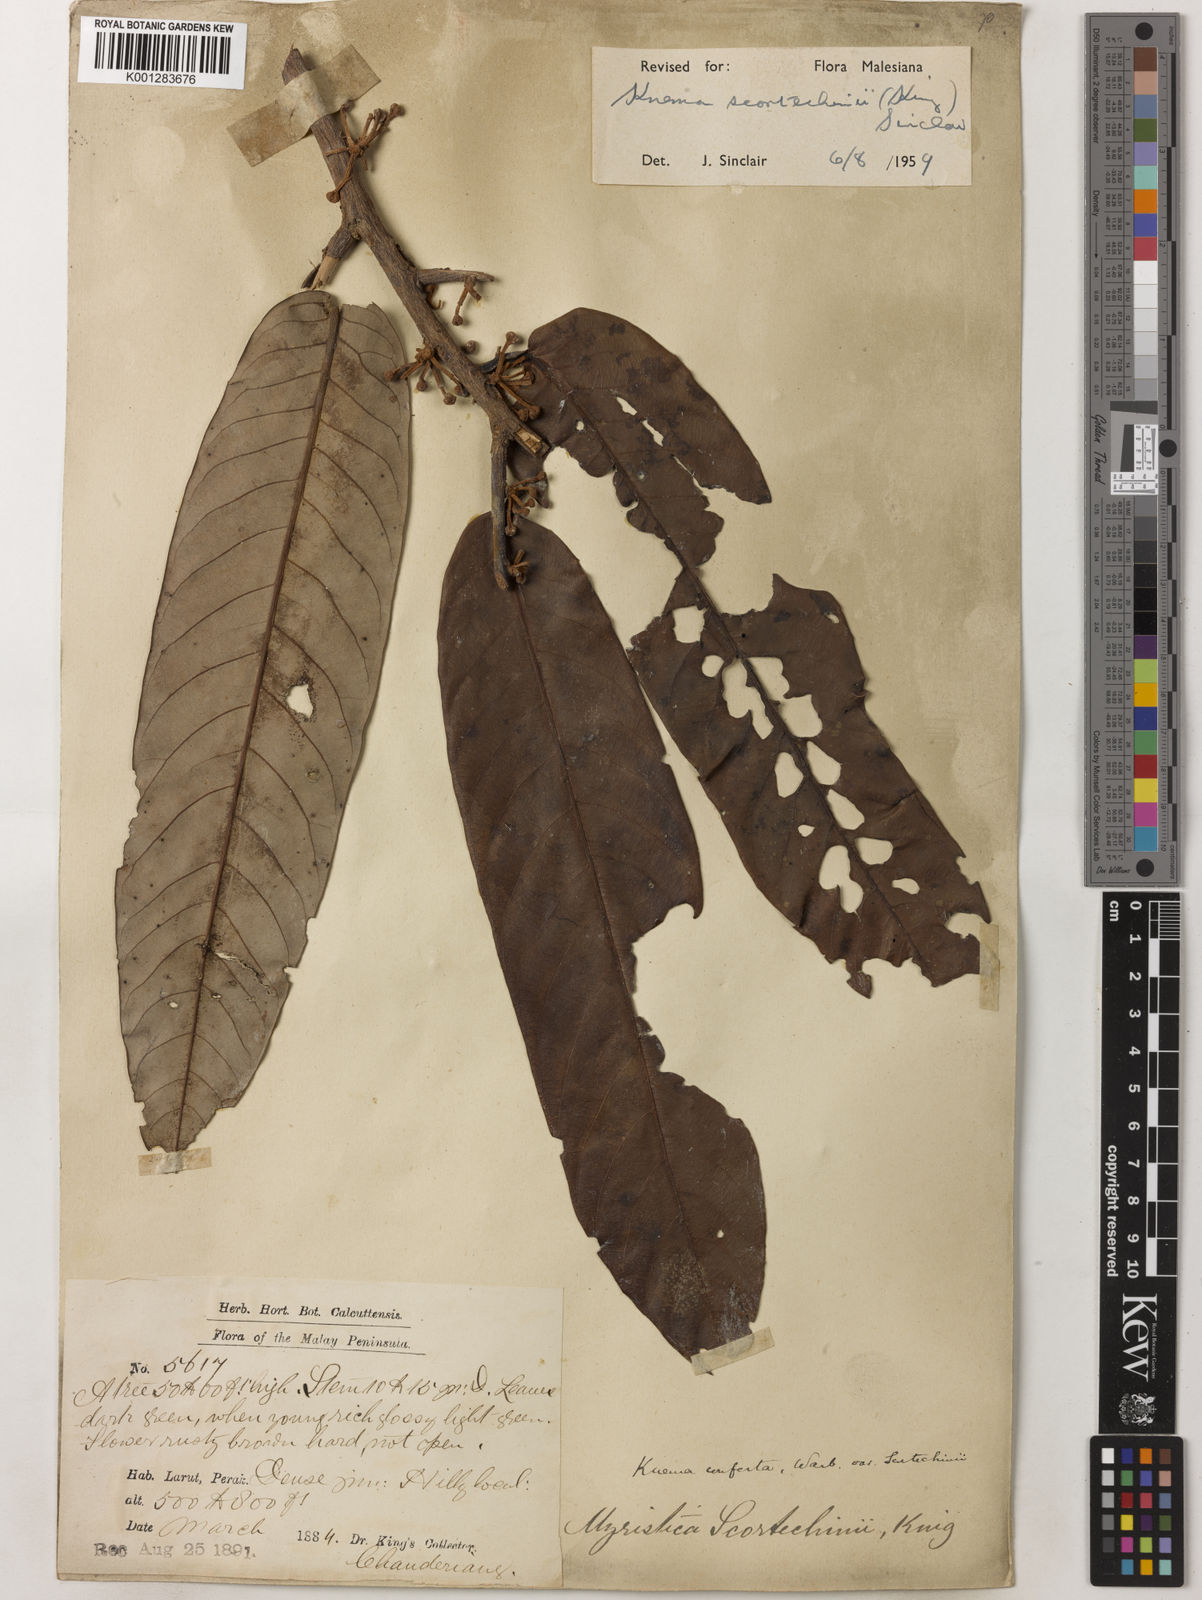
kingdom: Plantae
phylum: Tracheophyta
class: Magnoliopsida
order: Magnoliales
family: Myristicaceae
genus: Knema
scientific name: Knema scortechinii
